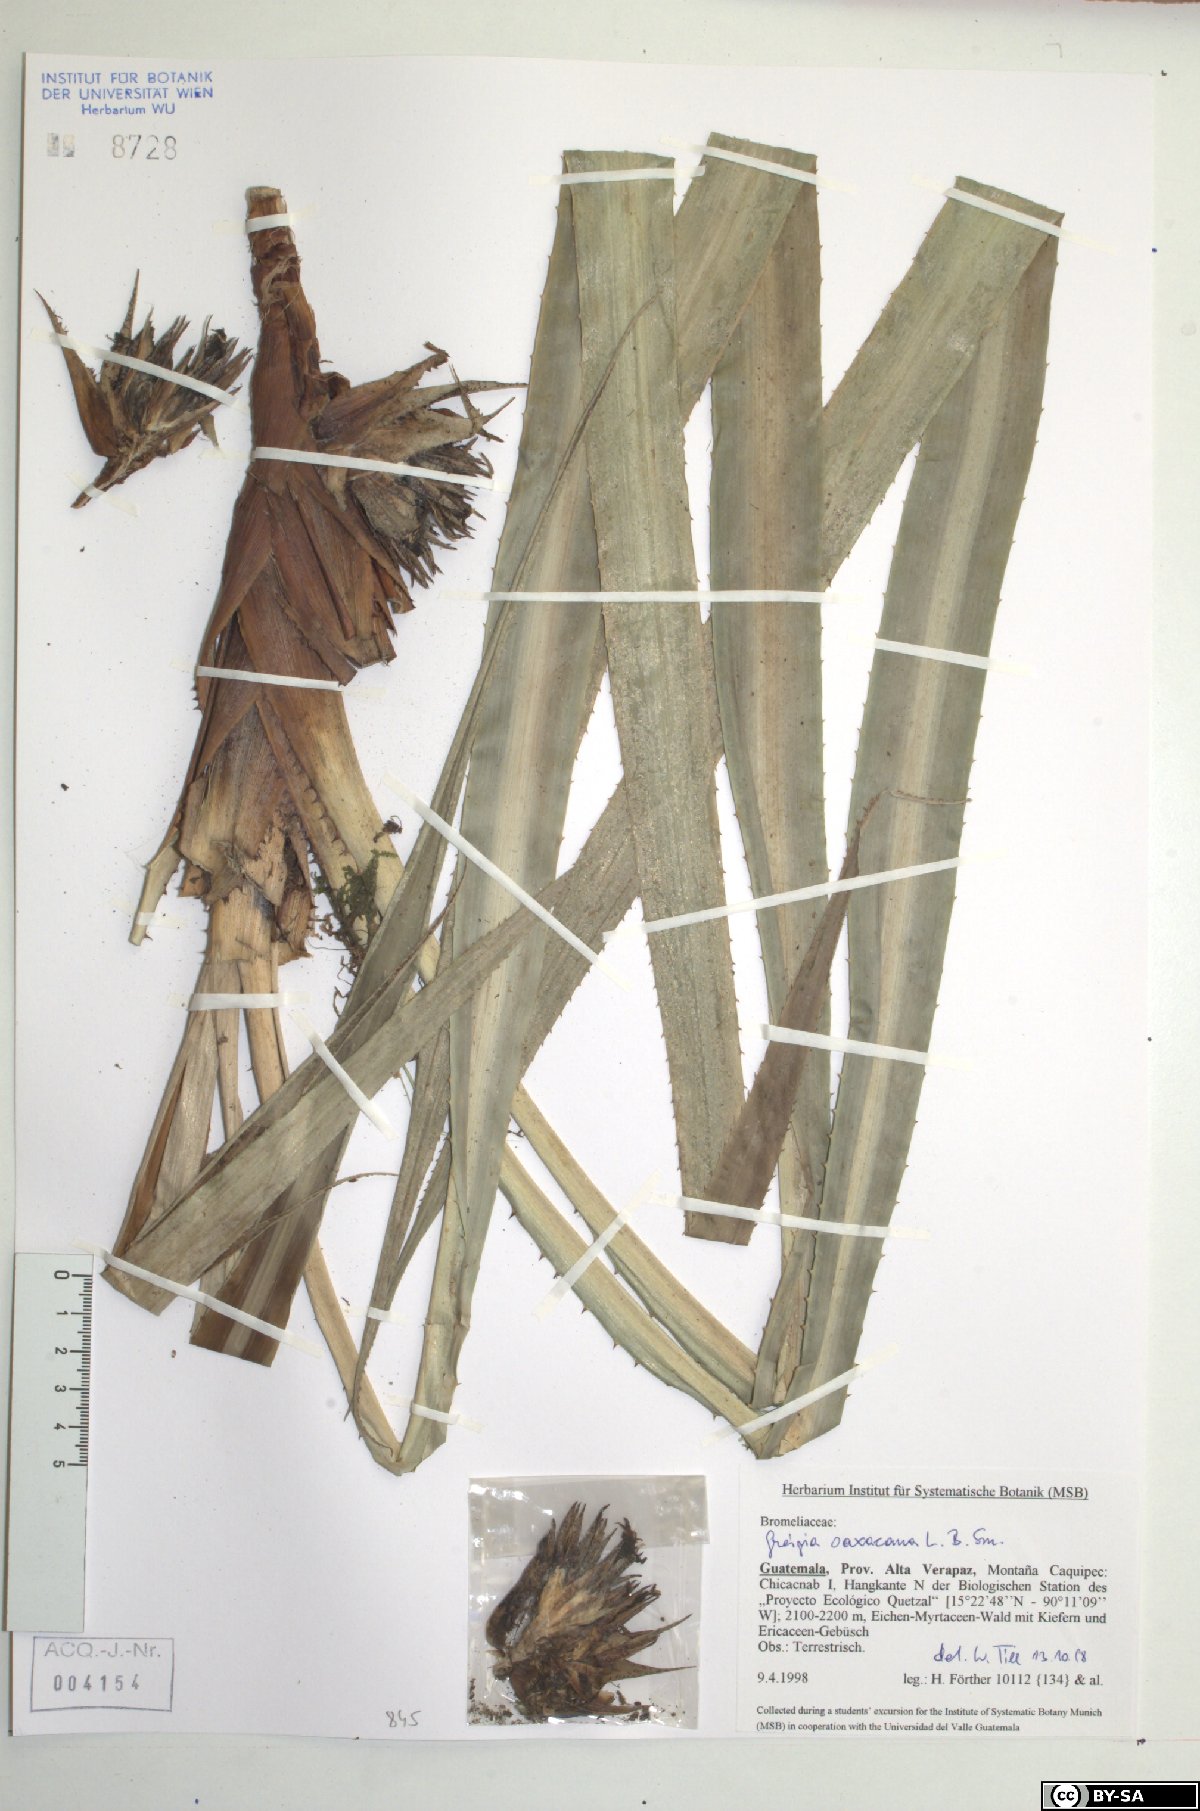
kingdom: Plantae
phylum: Tracheophyta
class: Liliopsida
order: Poales
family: Bromeliaceae
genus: Greigia
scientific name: Greigia oaxacana
